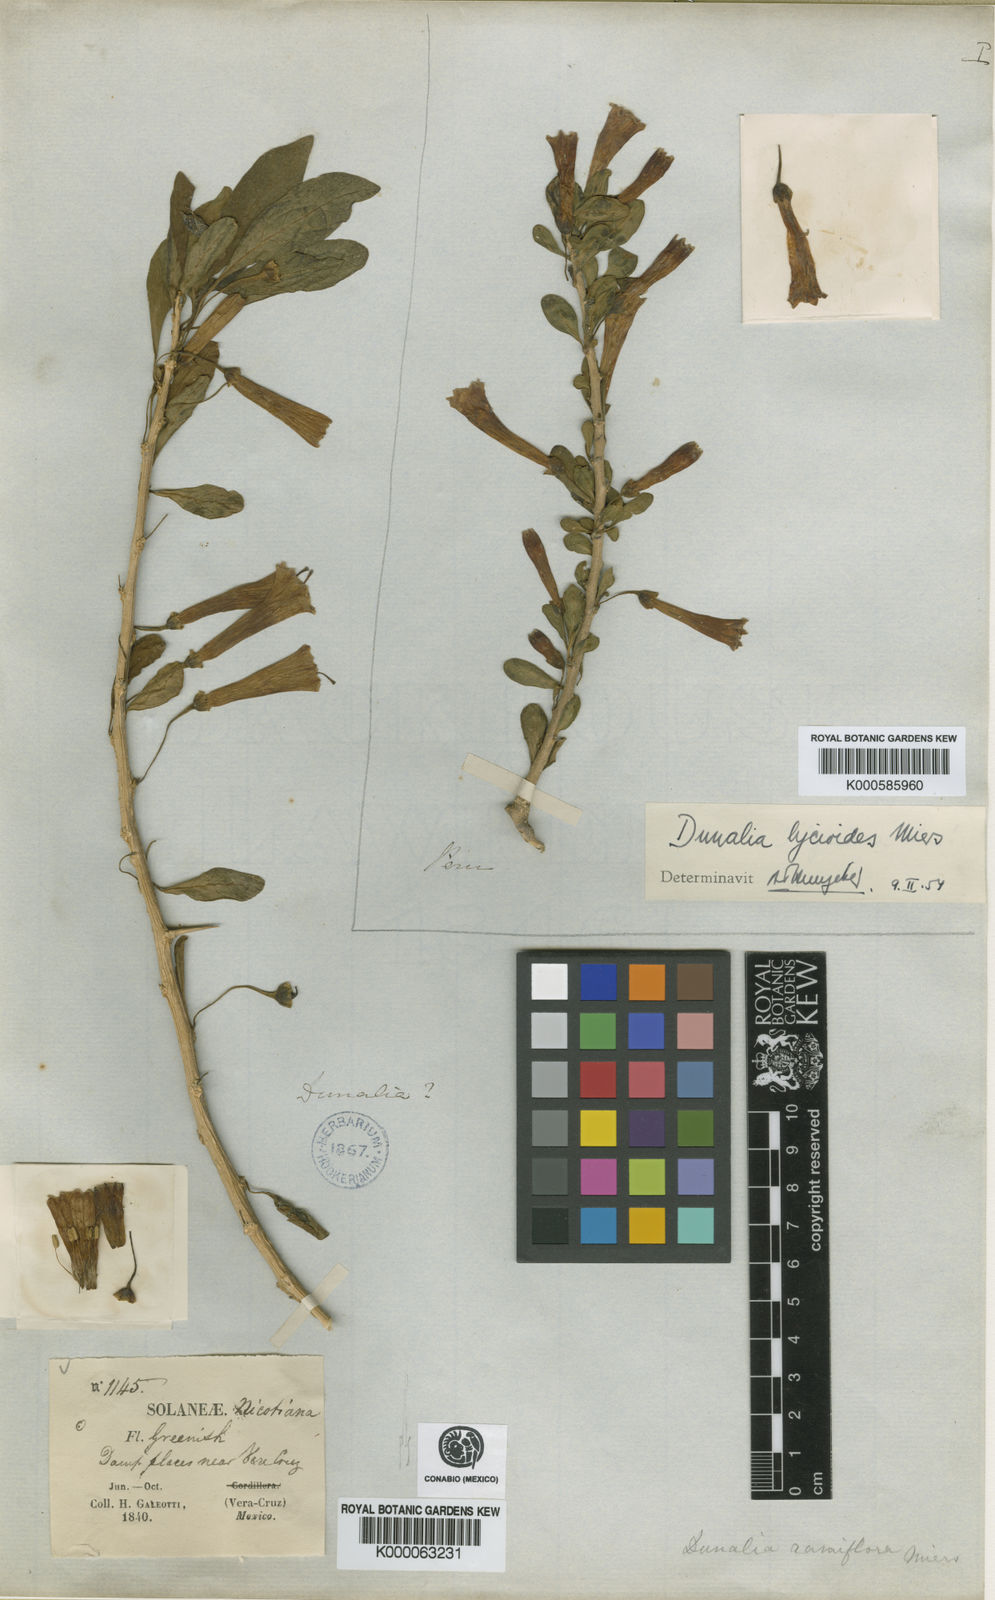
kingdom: Plantae
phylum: Tracheophyta
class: Magnoliopsida
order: Solanales
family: Solanaceae
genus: Dunalia
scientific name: Dunalia spinosa
